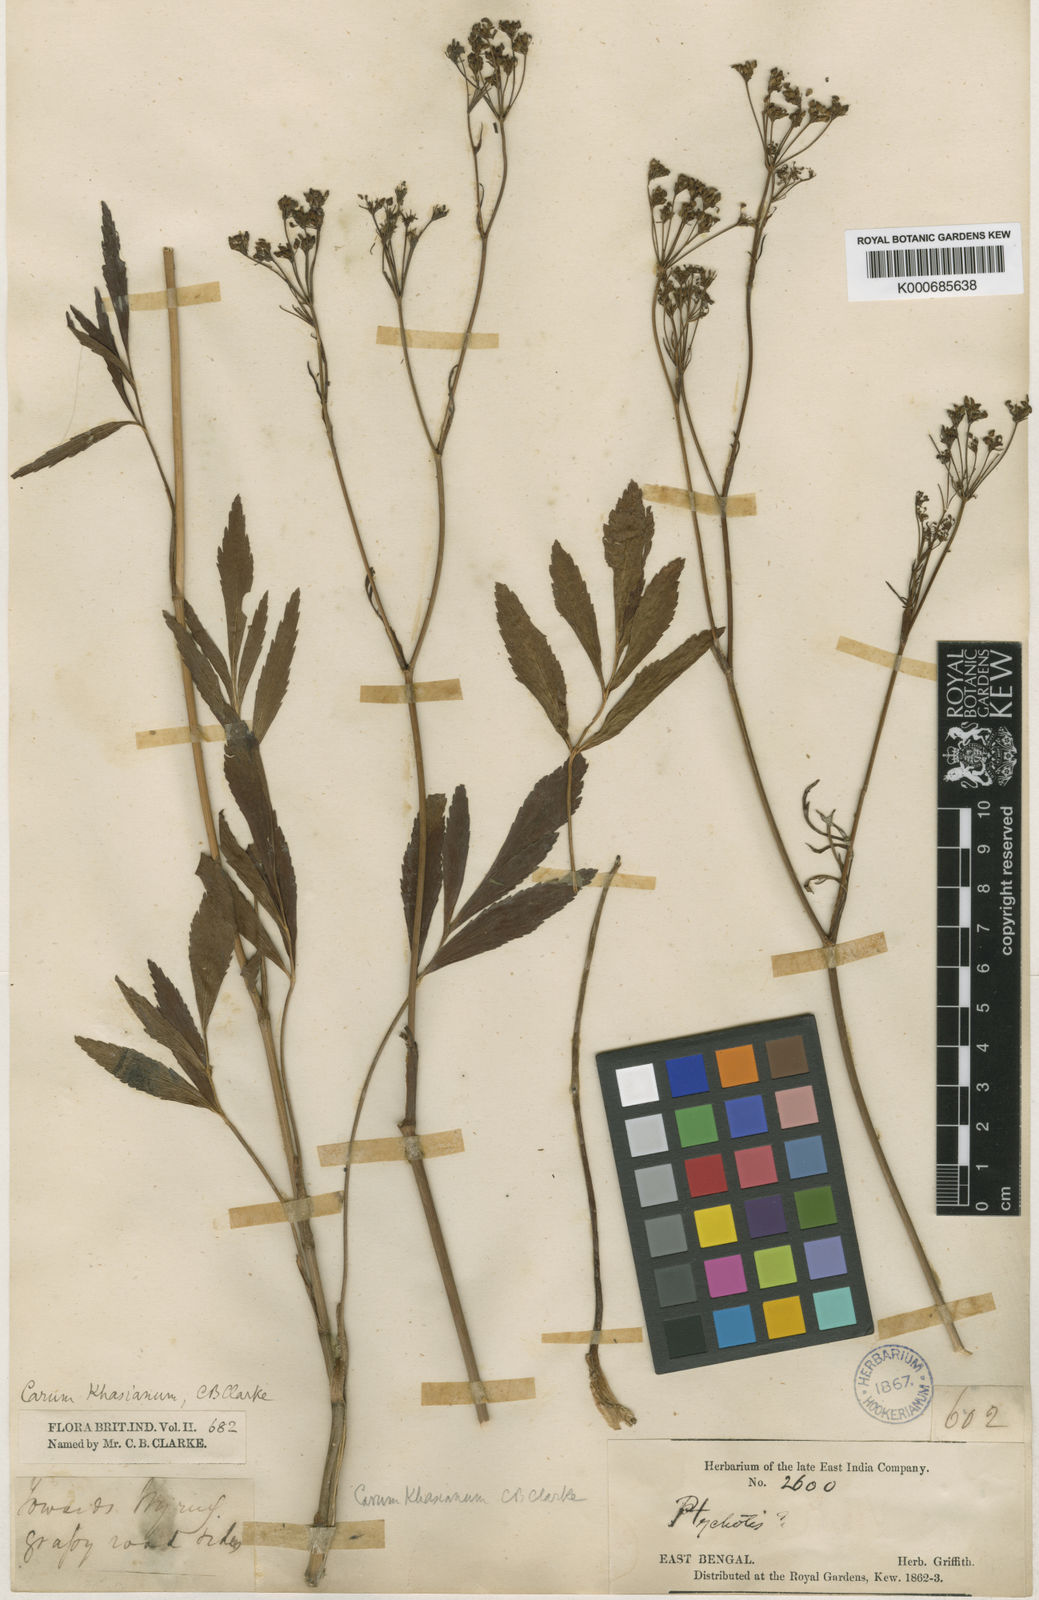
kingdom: Plantae
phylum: Tracheophyta
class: Magnoliopsida
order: Apiales
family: Apiaceae
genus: Trachyspermum
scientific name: Trachyspermum khasianum
